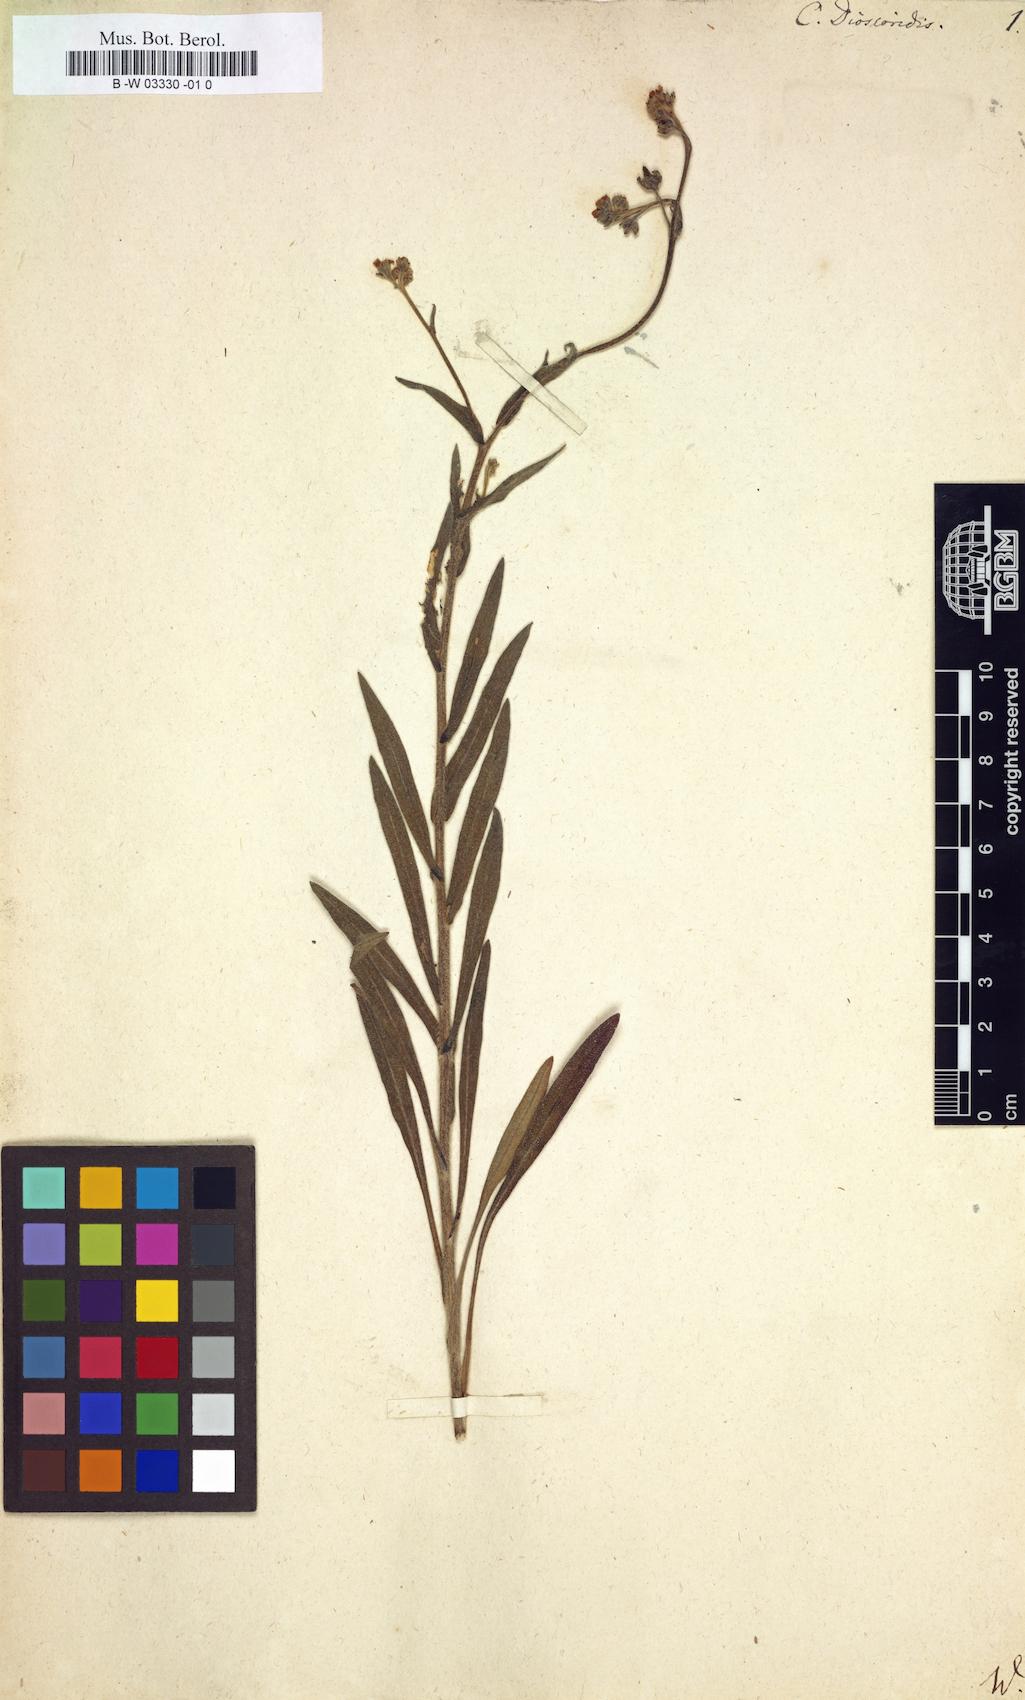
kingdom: Plantae
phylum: Tracheophyta
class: Magnoliopsida
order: Boraginales
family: Boraginaceae
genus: Cynoglossum
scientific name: Cynoglossum dioscoridis
